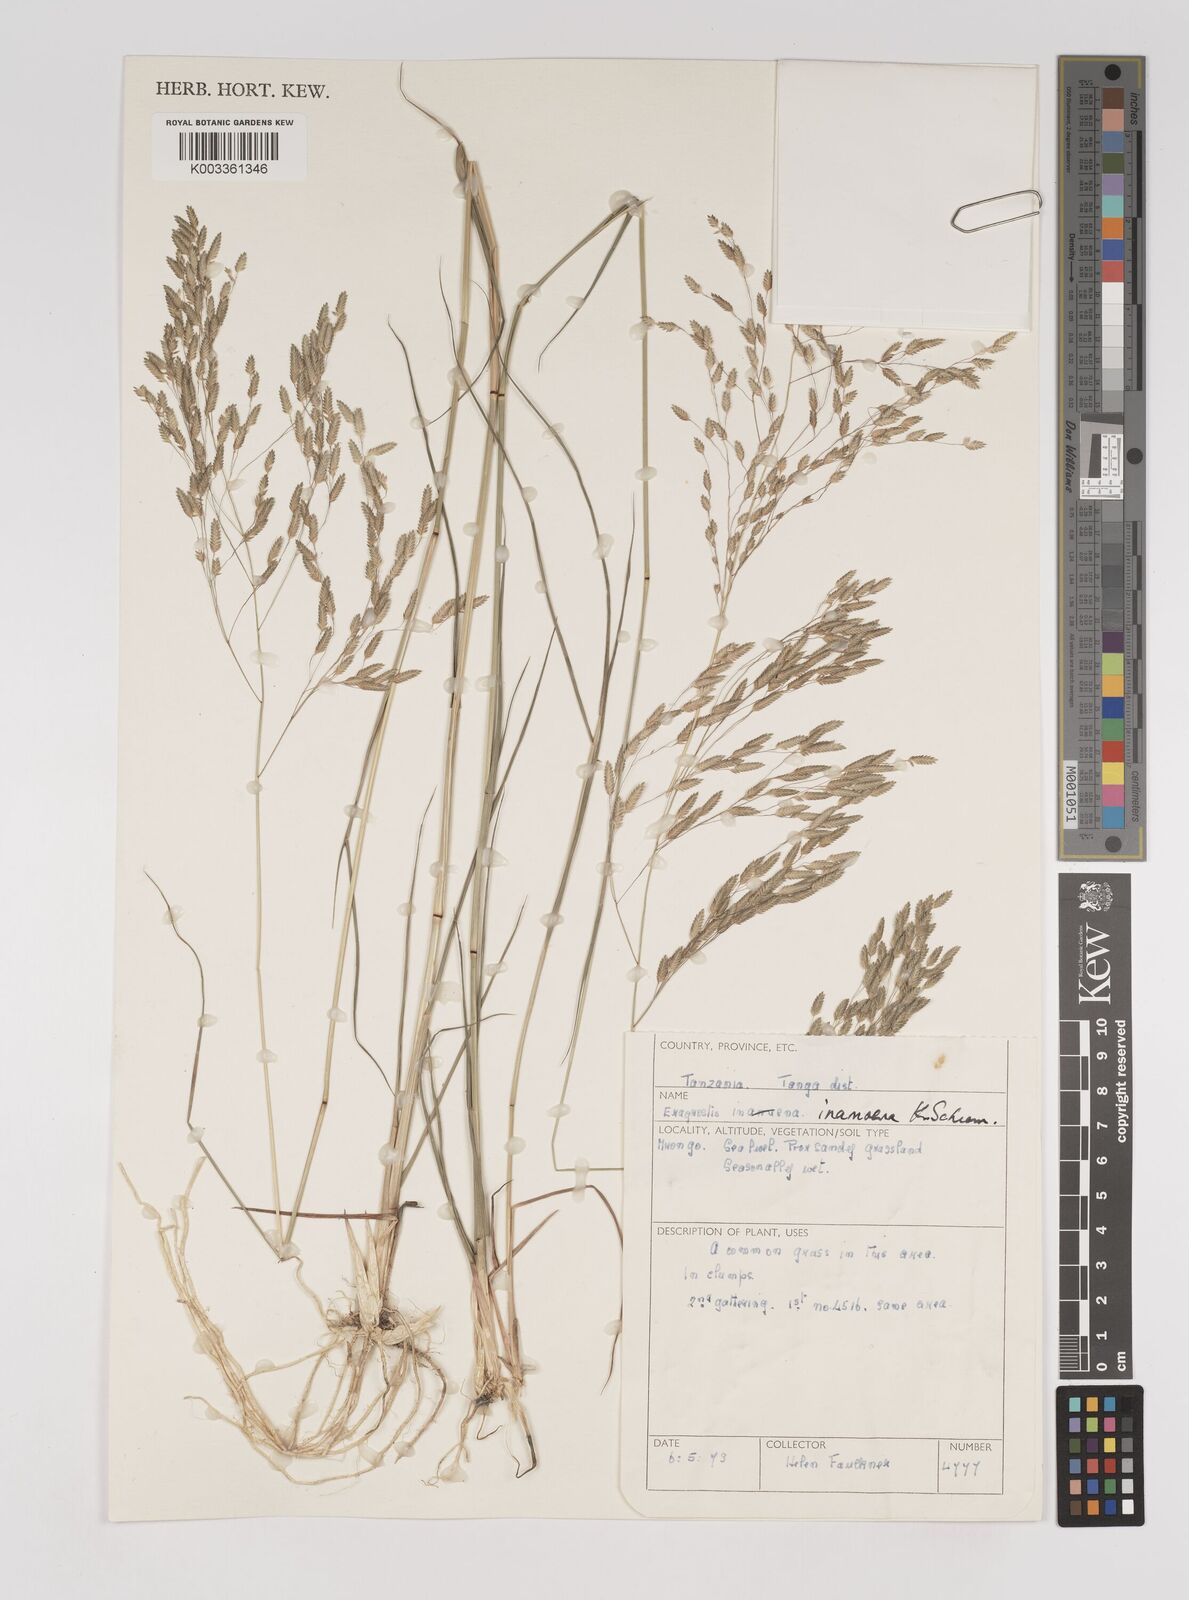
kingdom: Plantae
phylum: Tracheophyta
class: Liliopsida
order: Poales
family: Poaceae
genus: Eragrostis
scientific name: Eragrostis inamoena
